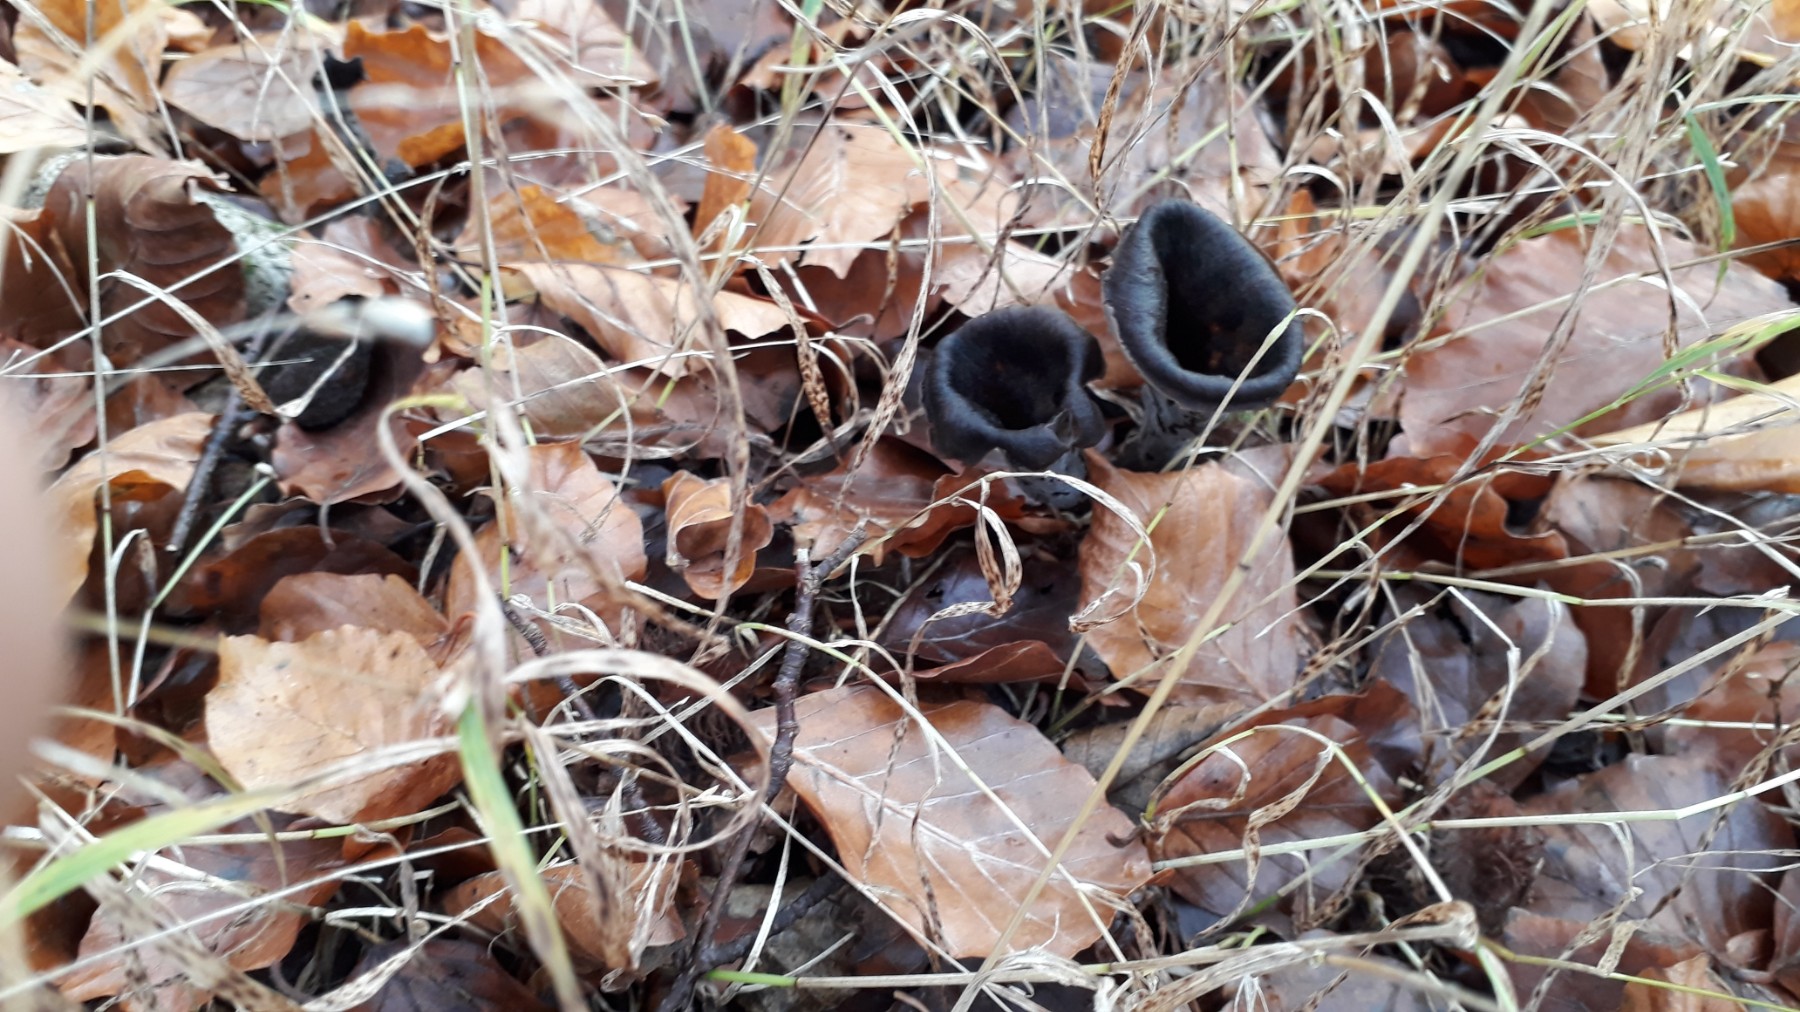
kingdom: Fungi
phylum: Basidiomycota
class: Agaricomycetes
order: Cantharellales
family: Hydnaceae
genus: Craterellus
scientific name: Craterellus cornucopioides
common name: trompetsvamp
